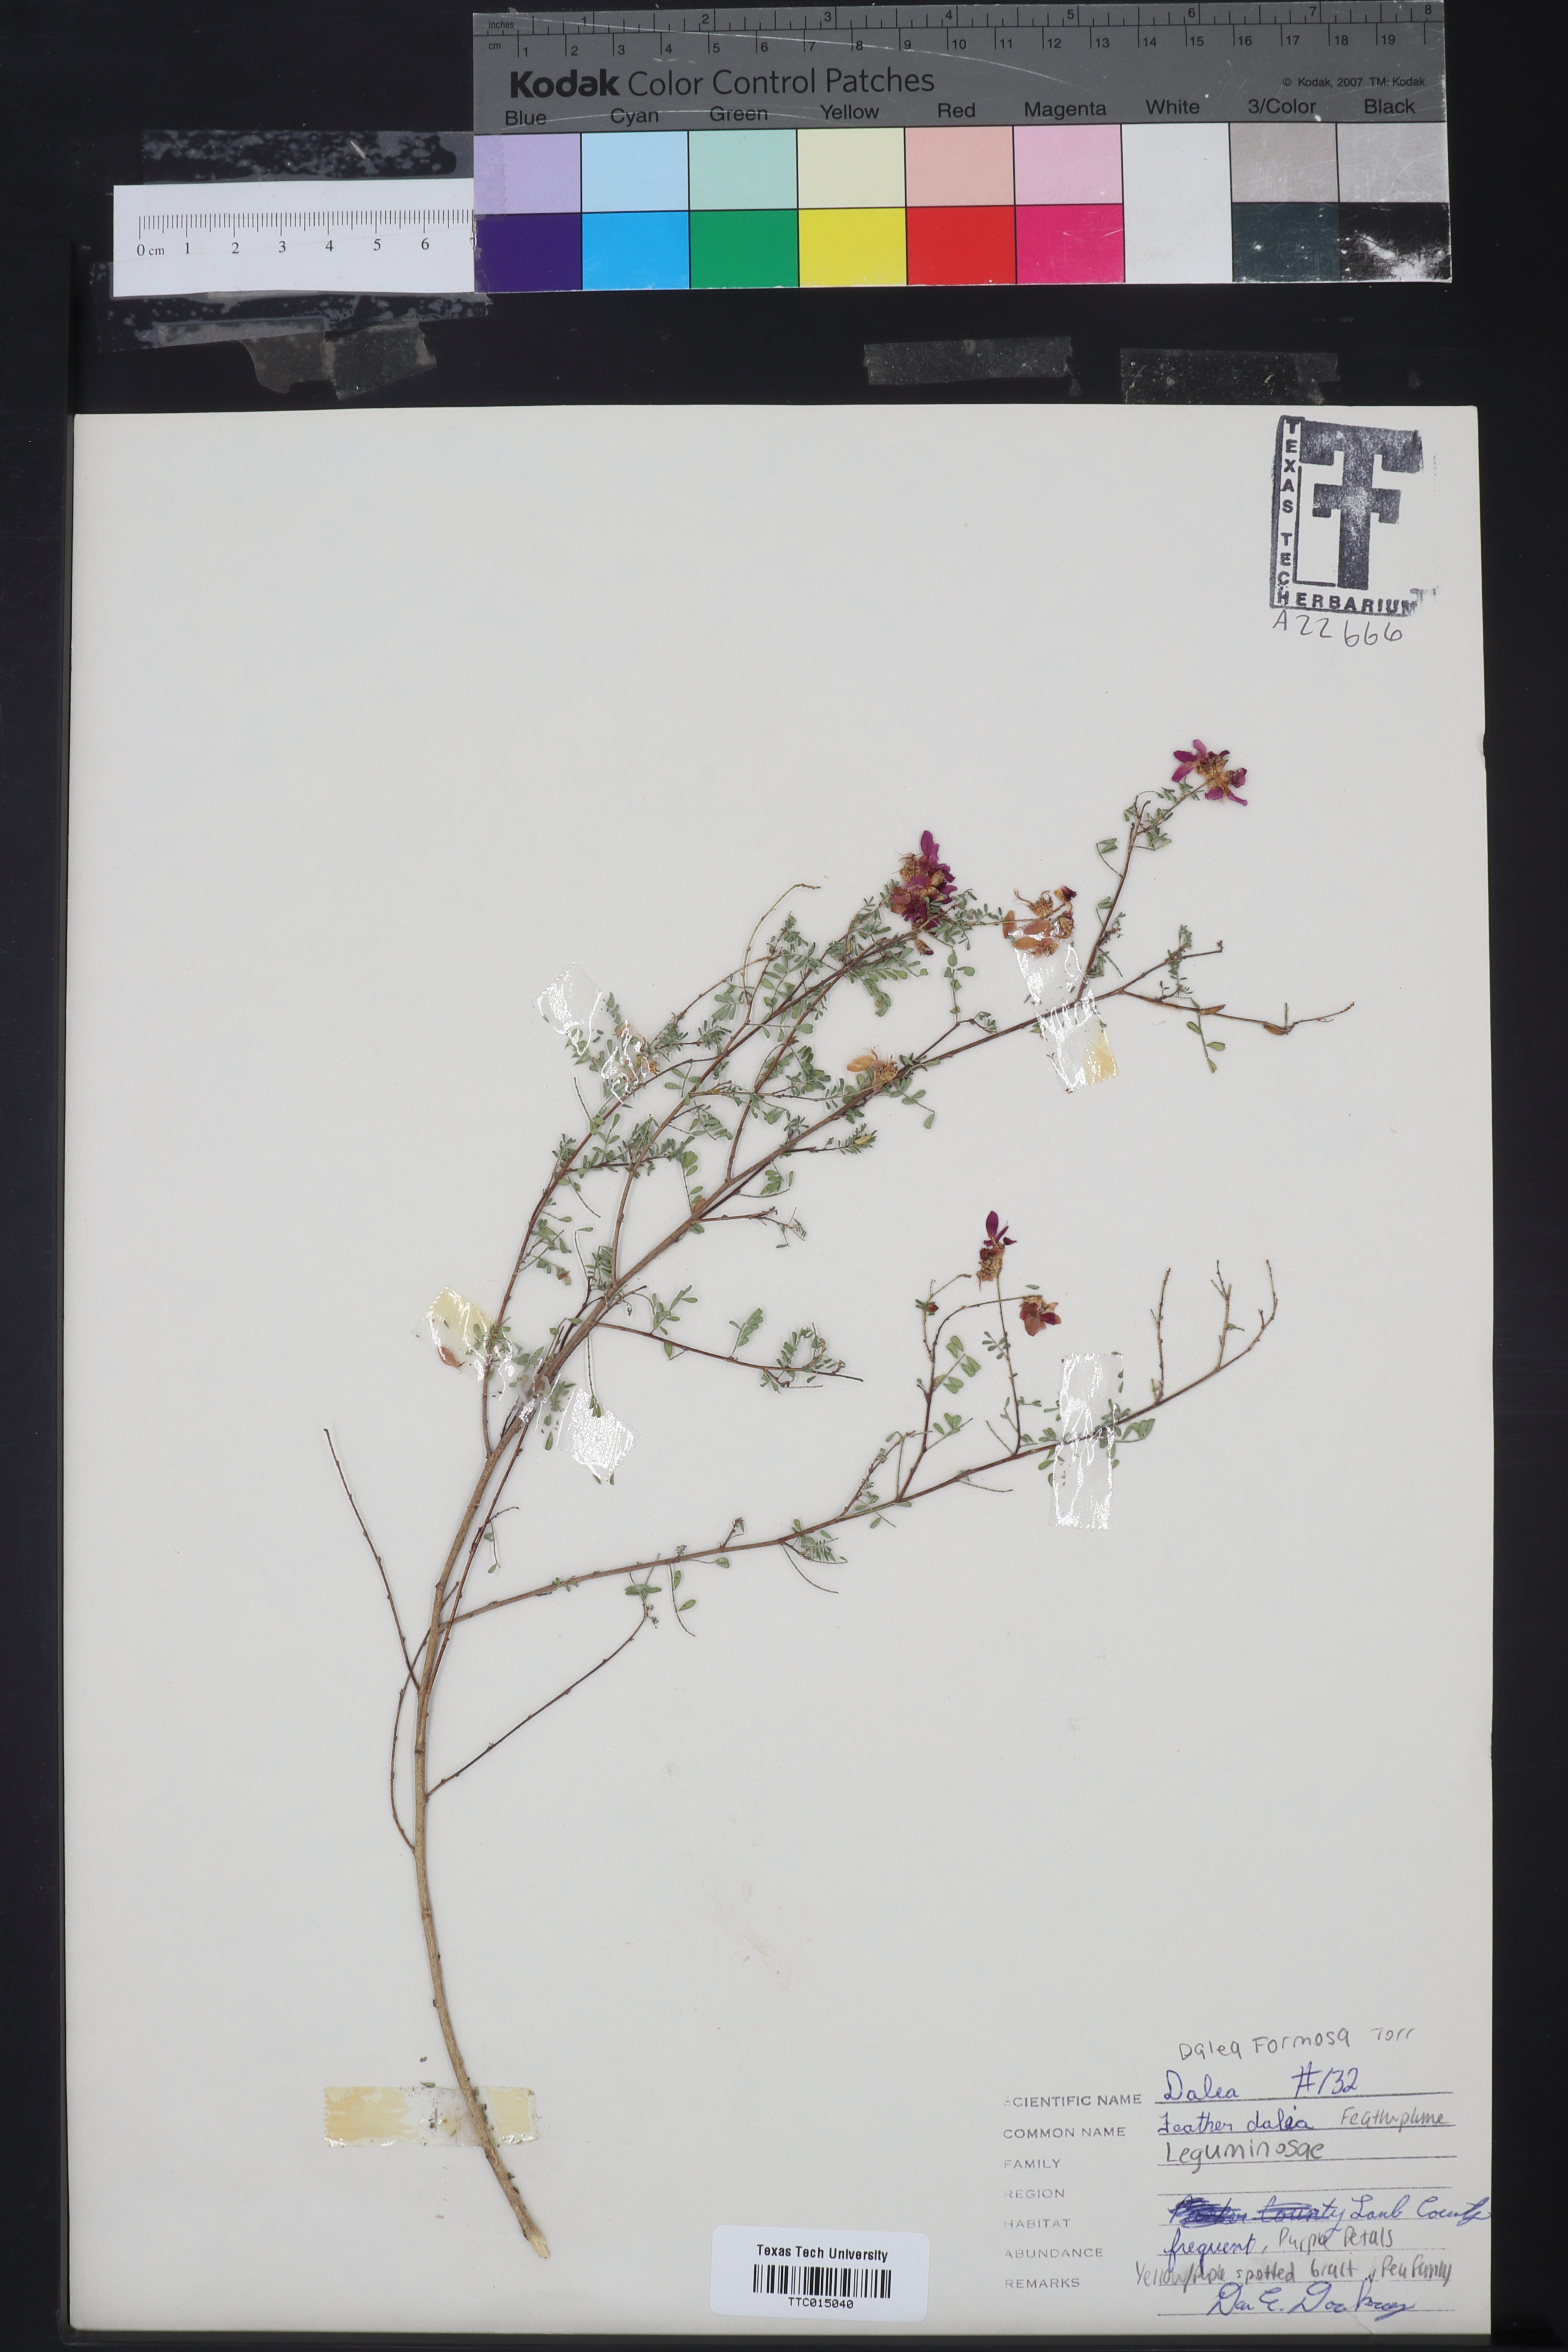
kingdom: Plantae
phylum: Tracheophyta
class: Magnoliopsida
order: Fabales
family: Fabaceae
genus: Dalea
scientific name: Dalea formosa
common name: Feather-plume dalea
